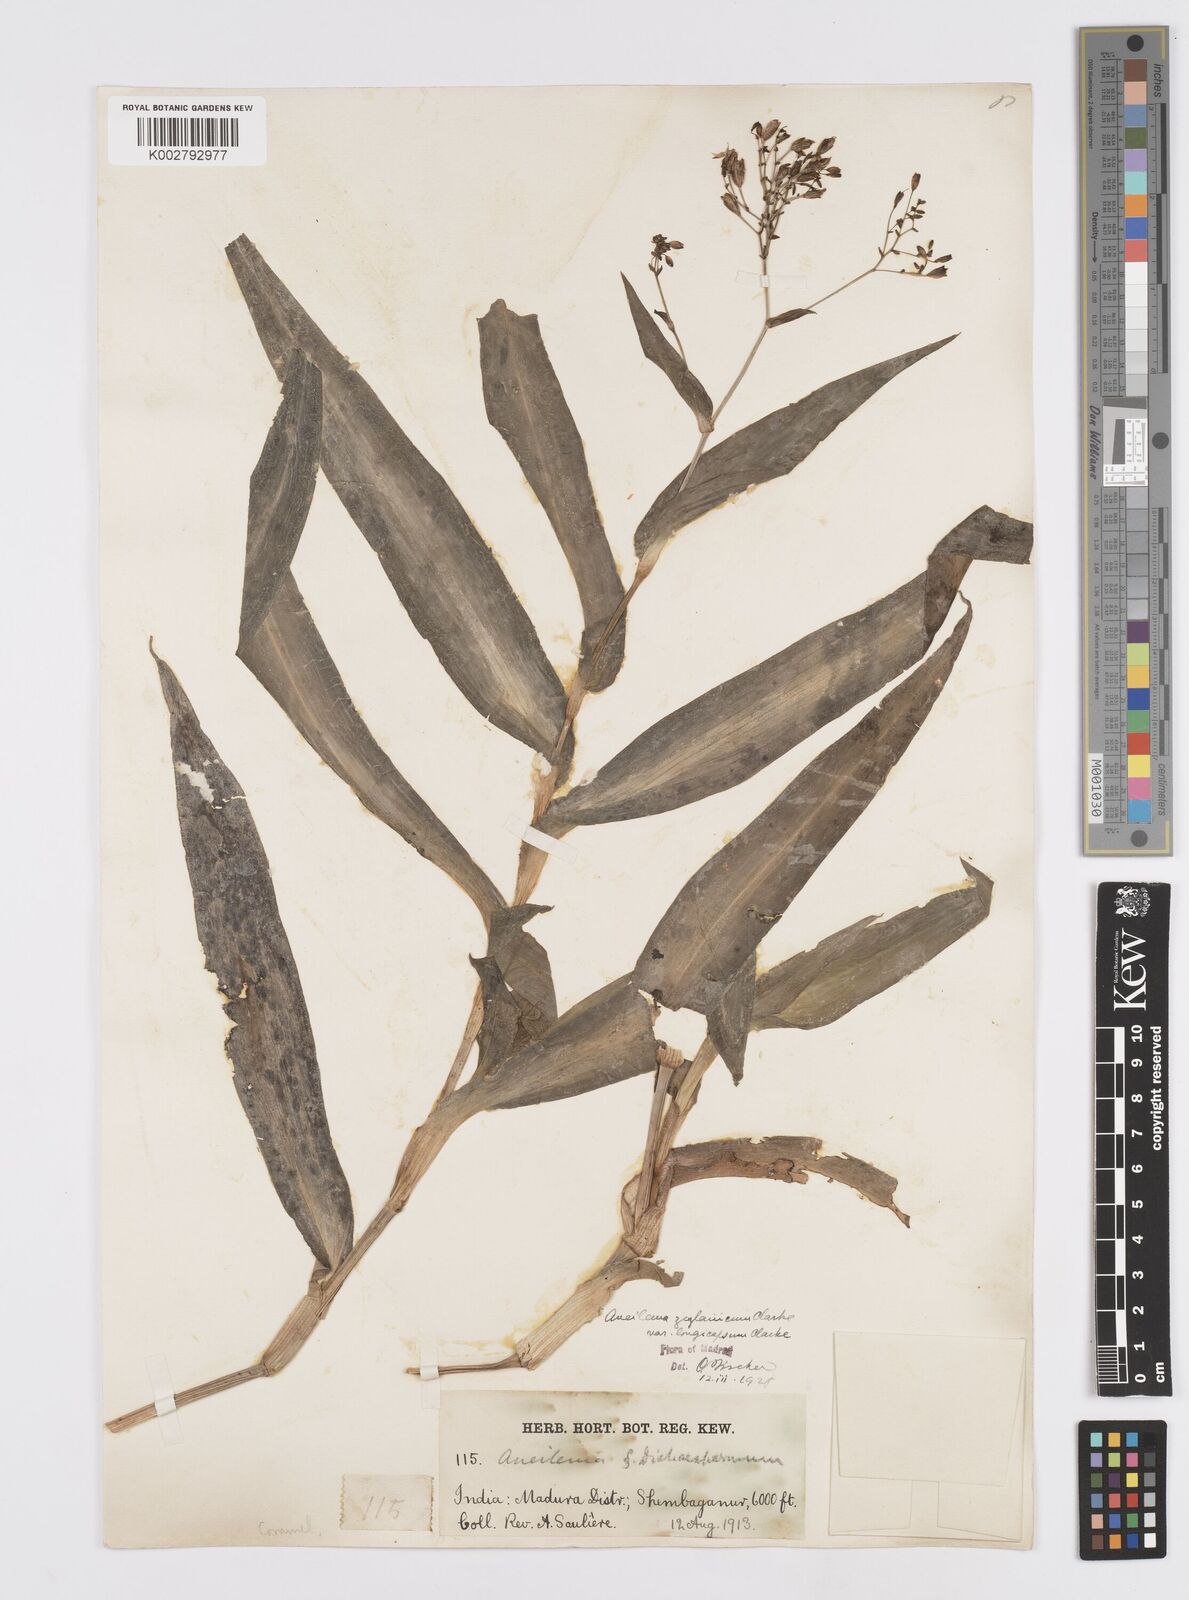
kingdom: Plantae
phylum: Tracheophyta
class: Liliopsida
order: Commelinales
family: Commelinaceae
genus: Murdannia
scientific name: Murdannia zeylanica
